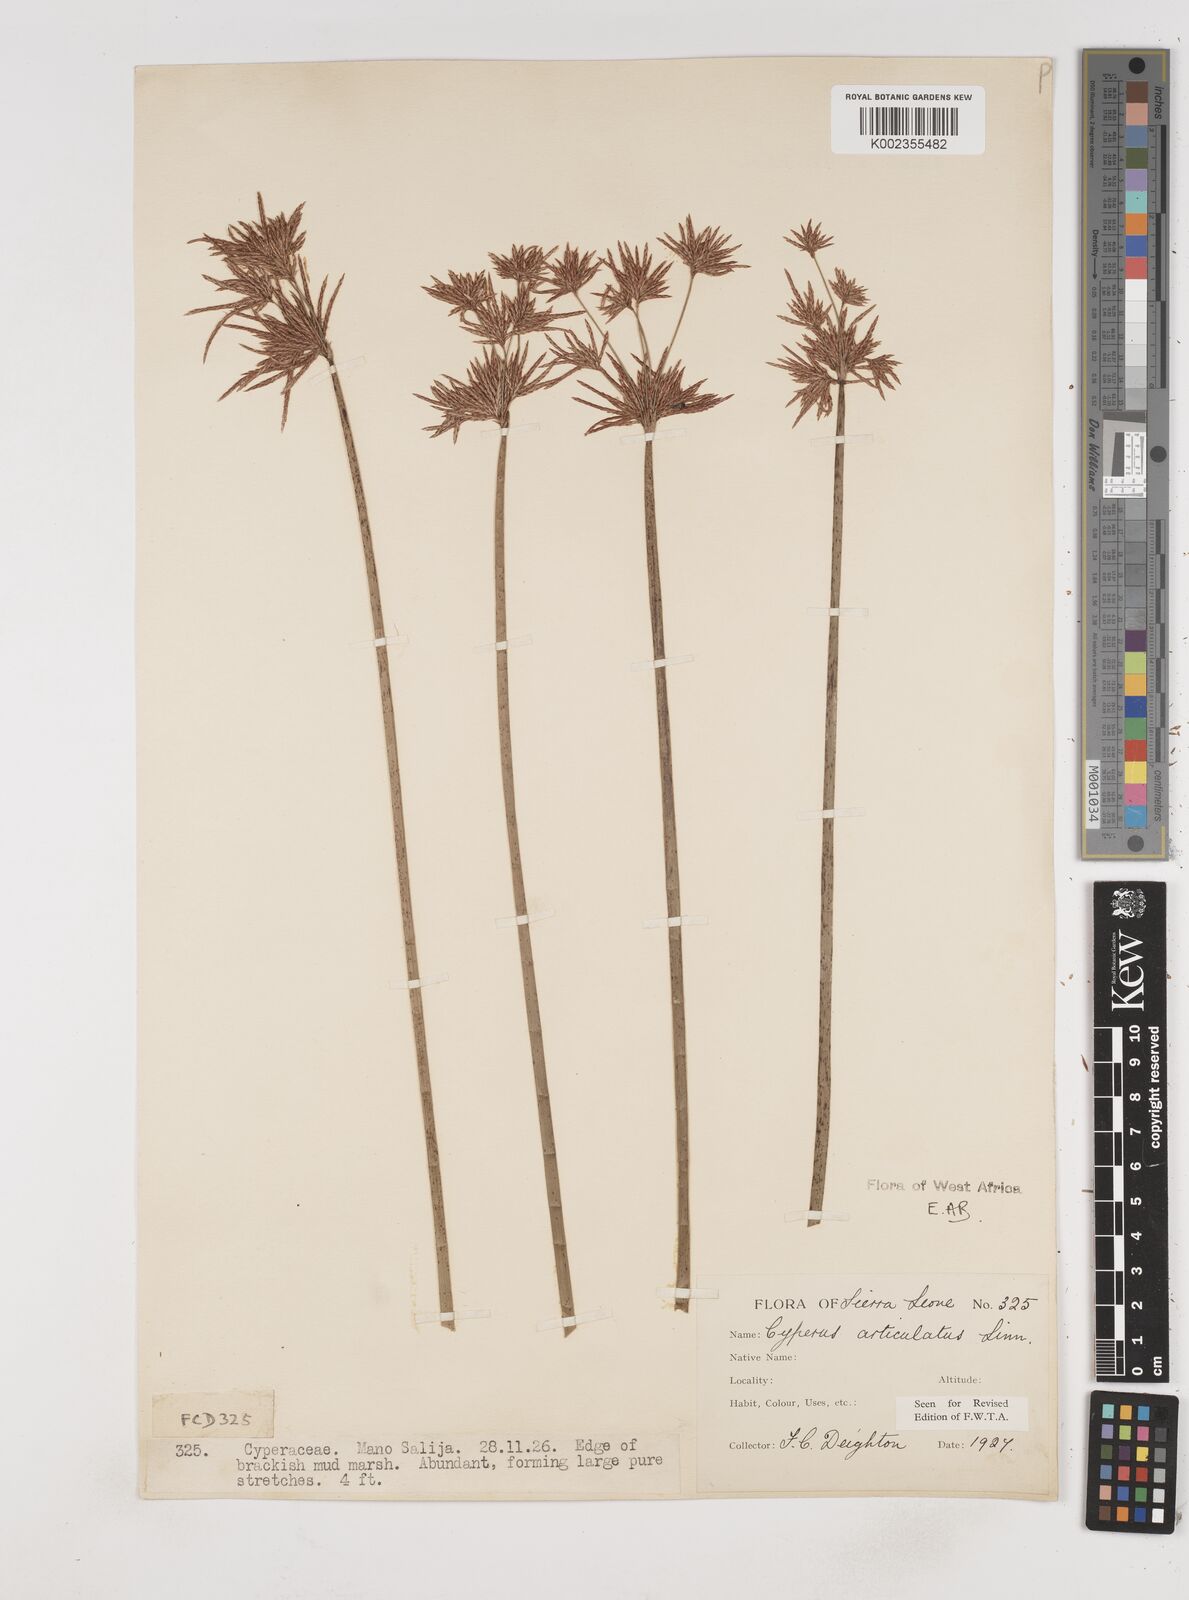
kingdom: Plantae
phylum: Tracheophyta
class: Liliopsida
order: Poales
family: Cyperaceae
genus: Cyperus
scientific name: Cyperus articulatus
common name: Jointed flatsedge
